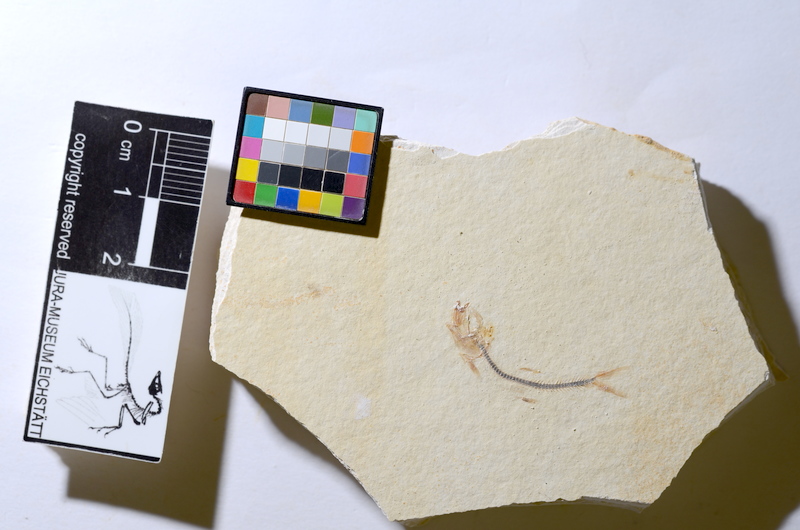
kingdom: Animalia
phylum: Chordata
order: Salmoniformes
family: Orthogonikleithridae
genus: Orthogonikleithrus
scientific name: Orthogonikleithrus hoelli
